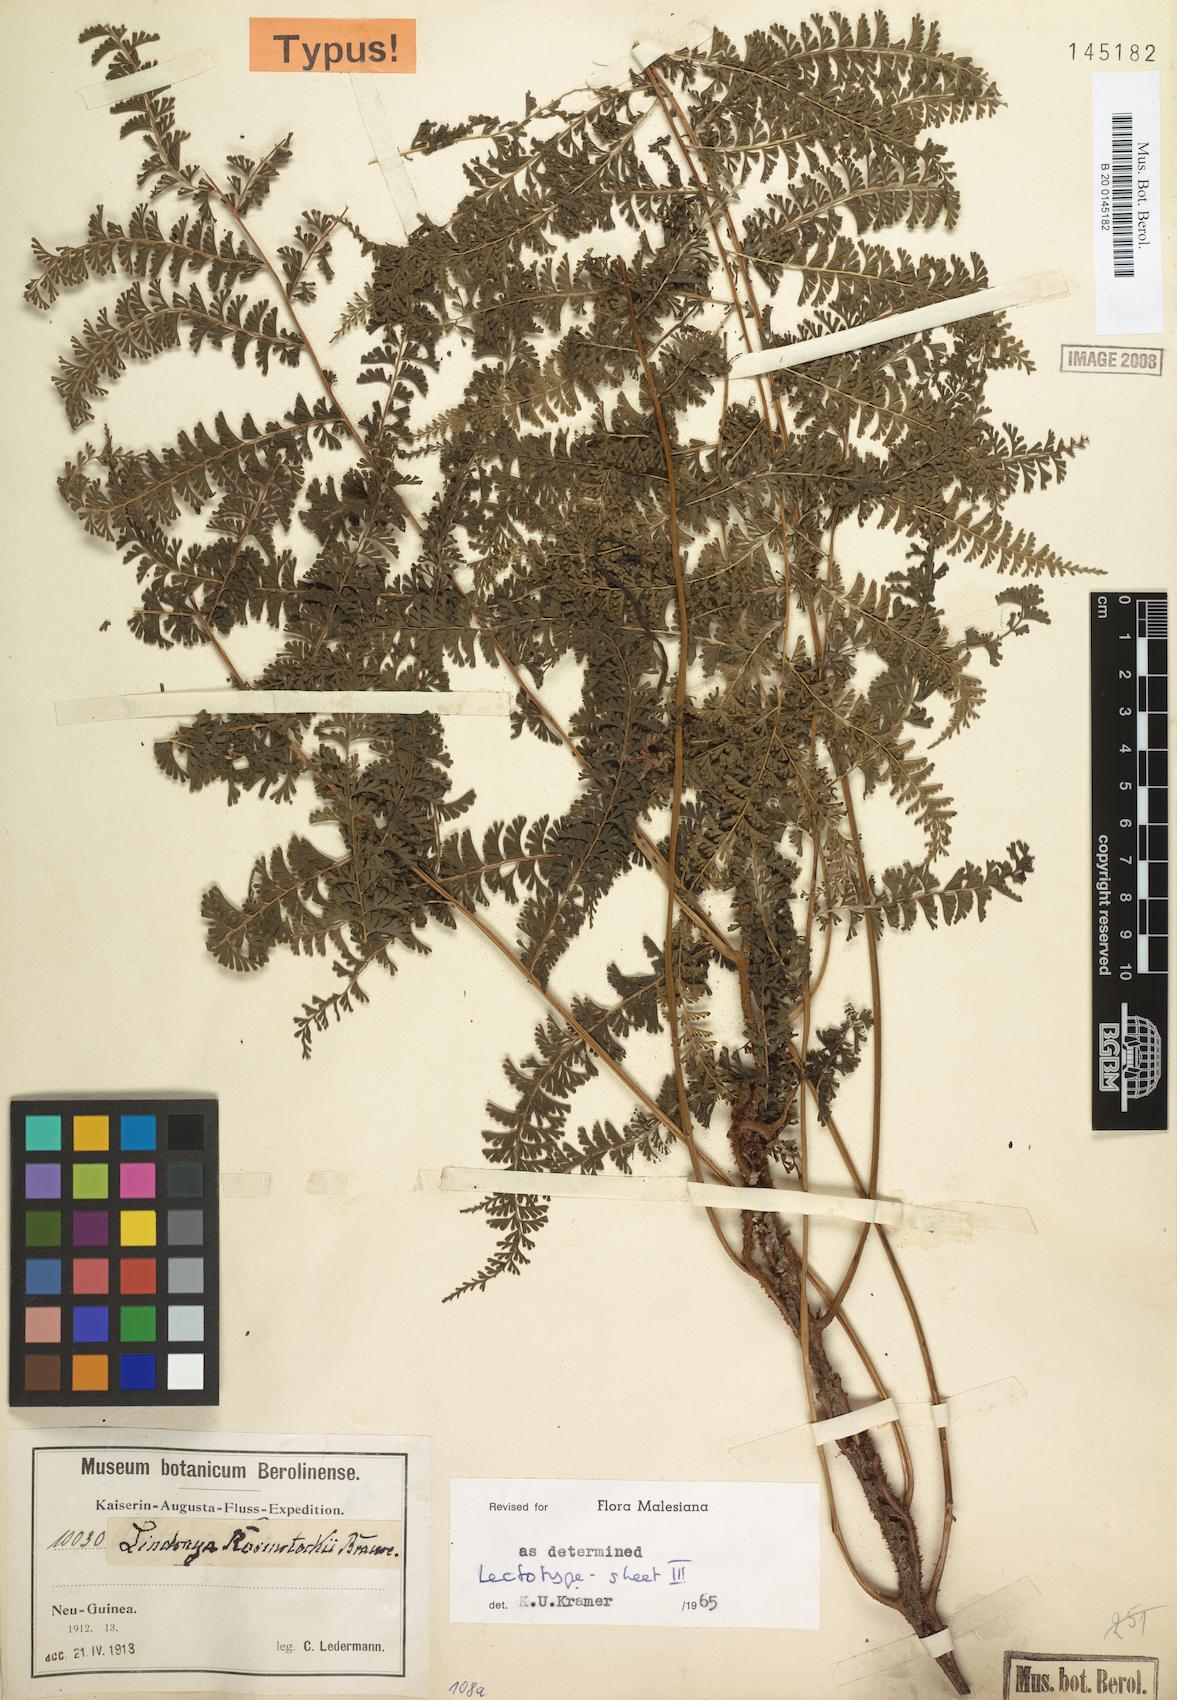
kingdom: Plantae
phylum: Tracheophyta
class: Polypodiopsida
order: Polypodiales
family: Lindsaeaceae
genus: Lindsaea
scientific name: Lindsaea rosenstockii
